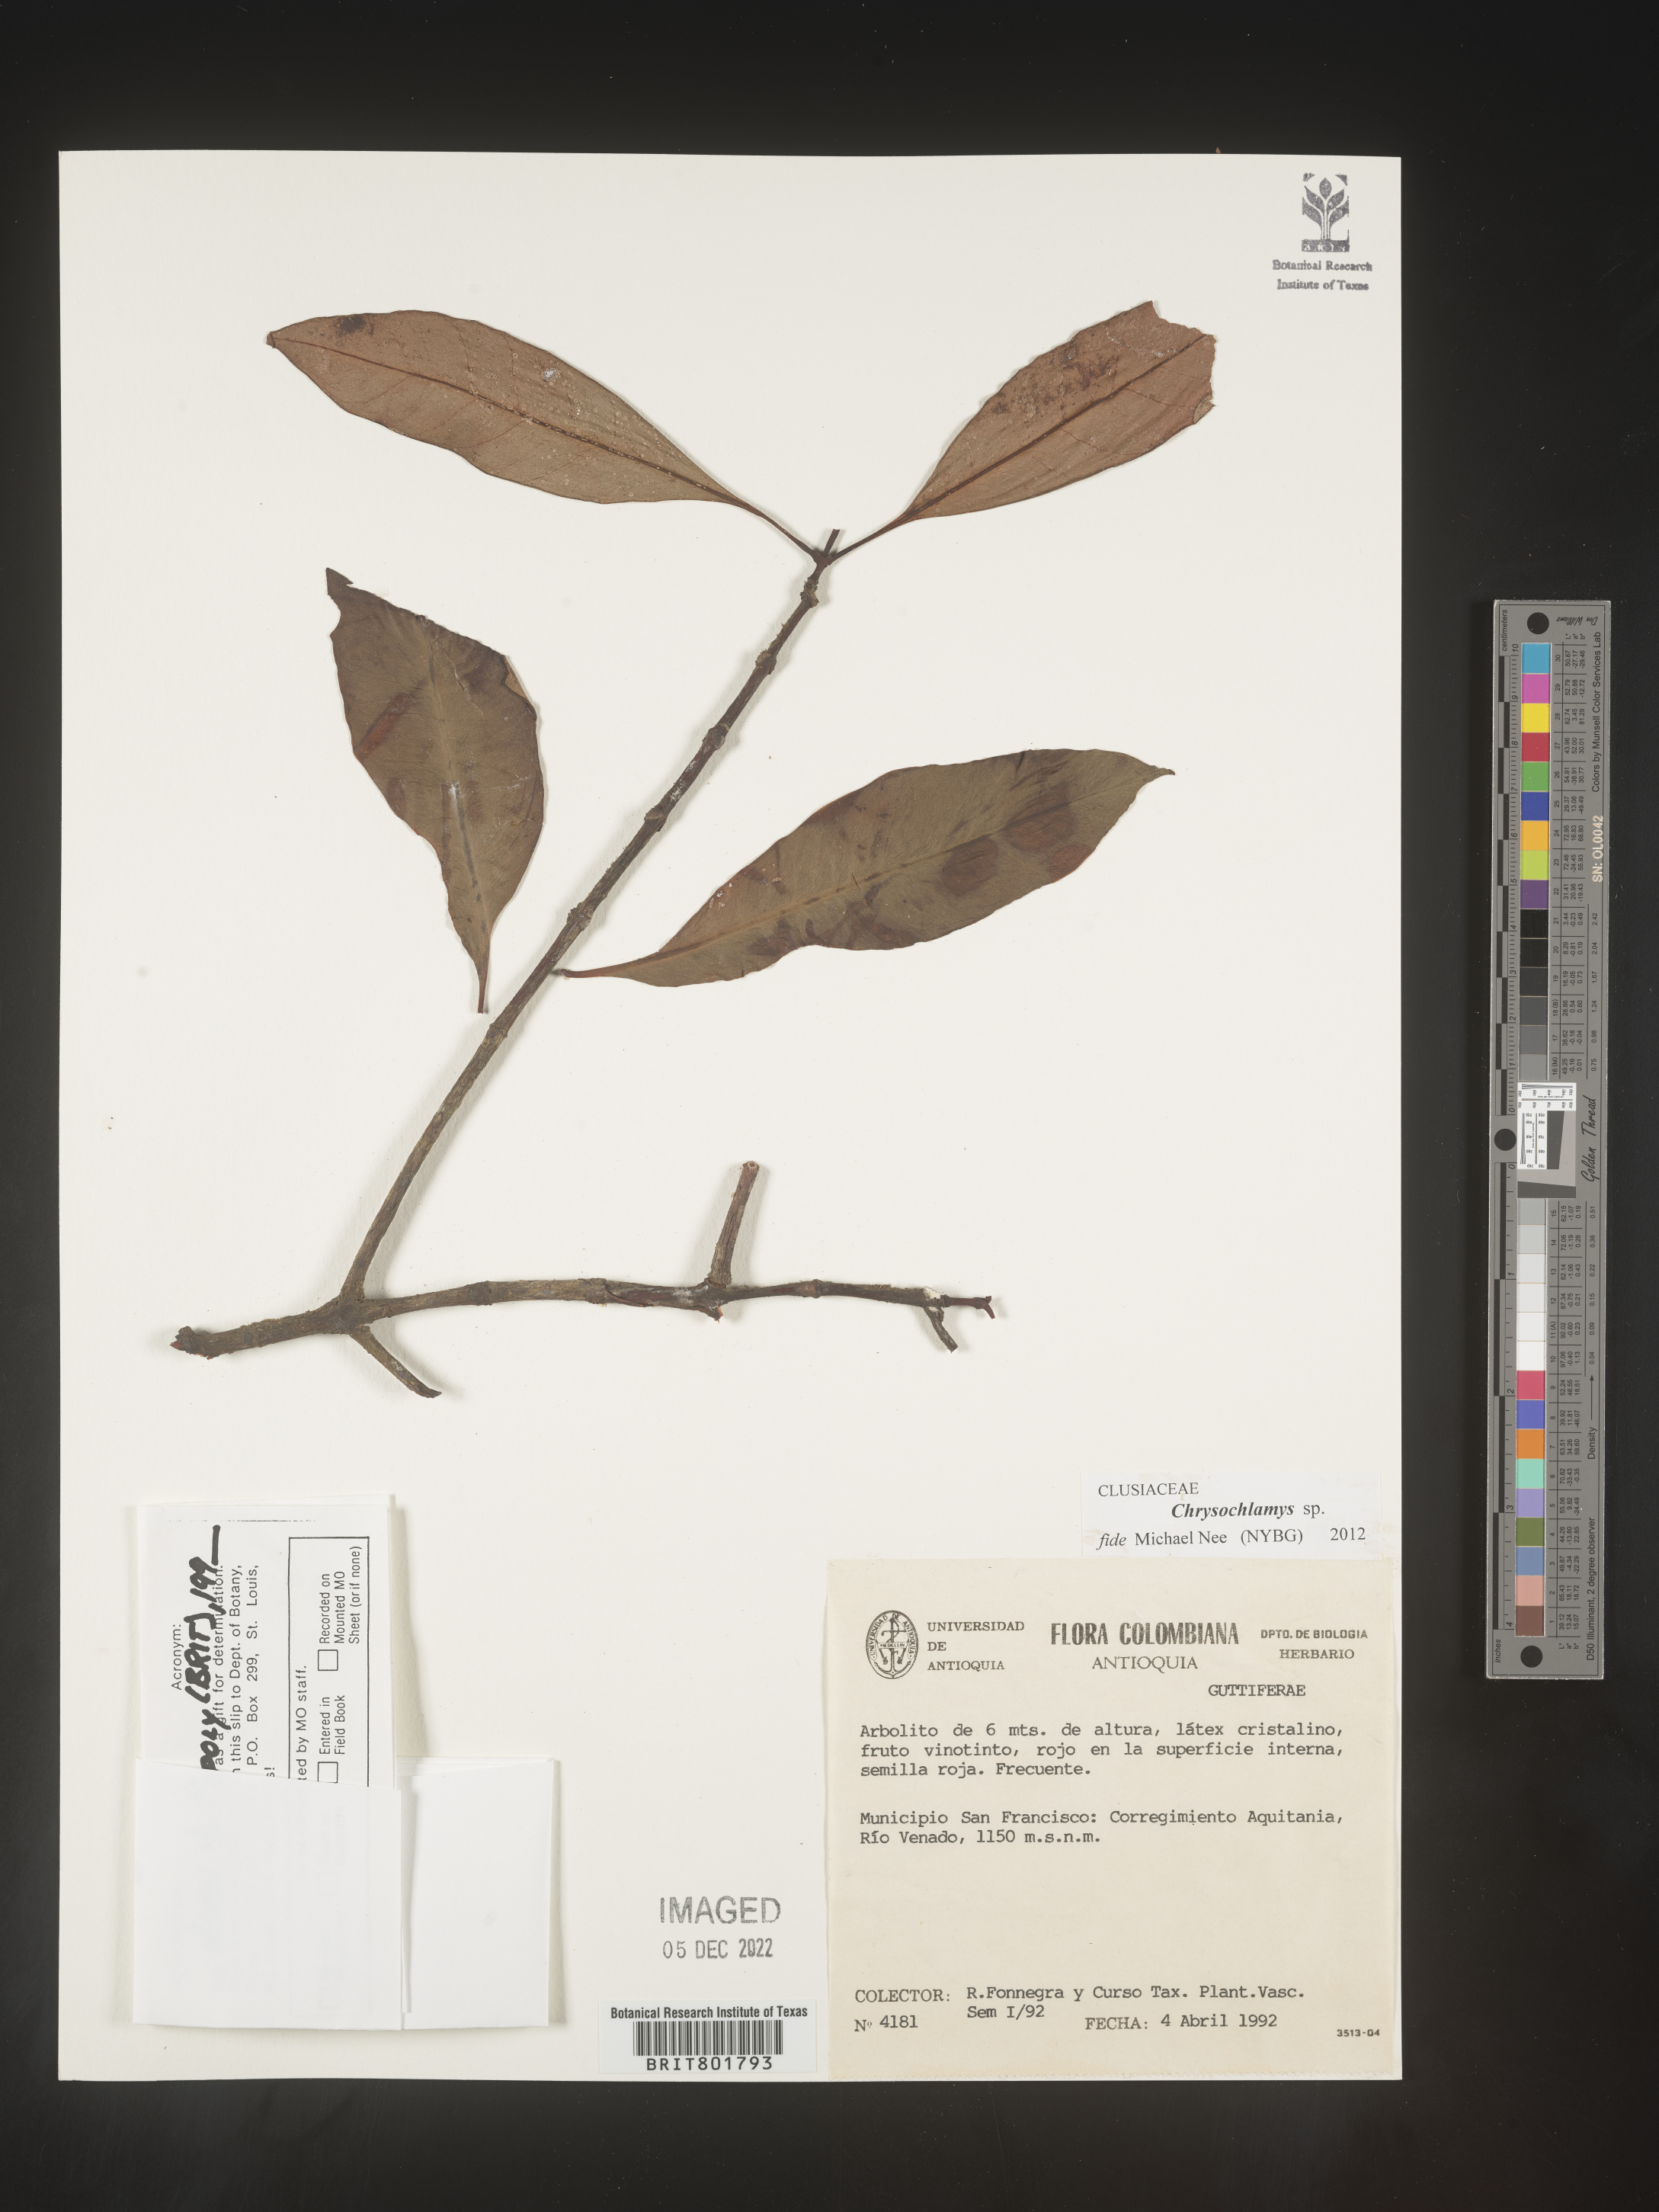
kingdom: Plantae
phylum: Tracheophyta
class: Magnoliopsida
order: Malpighiales
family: Clusiaceae
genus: Chrysochlamys
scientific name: Chrysochlamys
